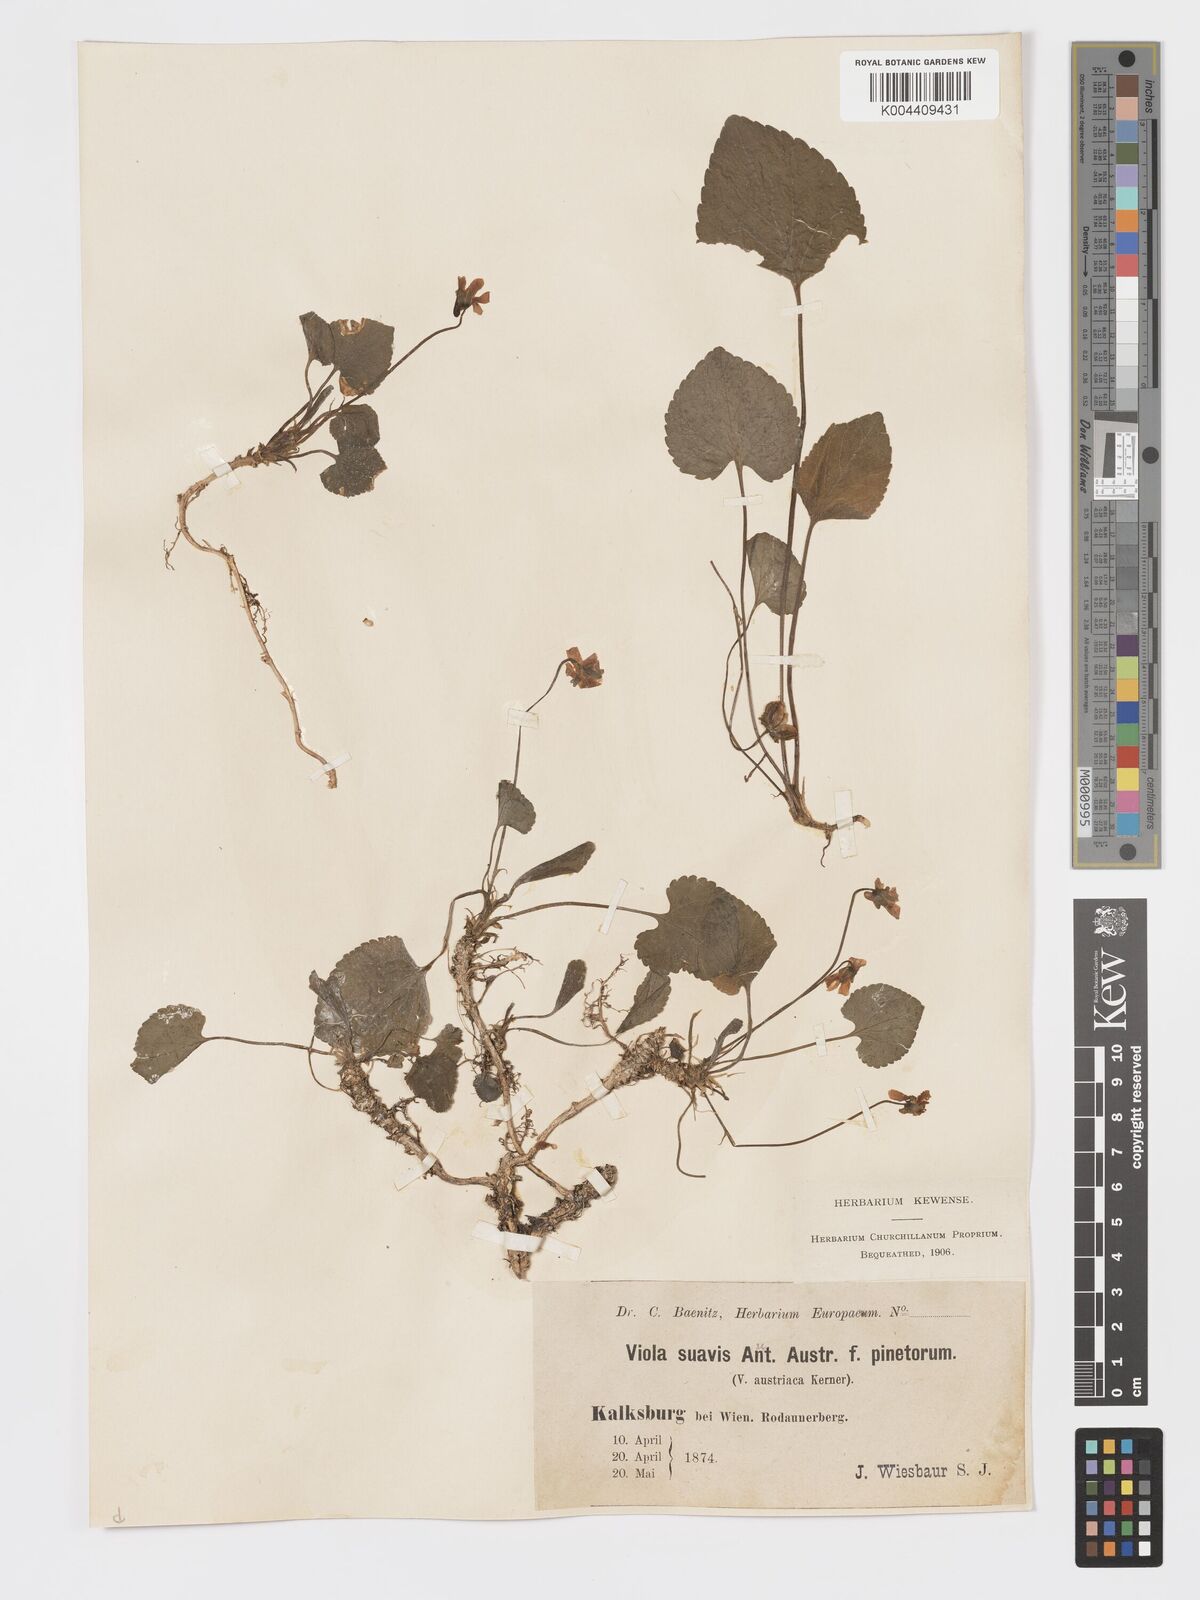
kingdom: Plantae
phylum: Tracheophyta
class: Magnoliopsida
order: Malpighiales
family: Violaceae
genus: Viola
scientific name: Viola kalksburgensis
